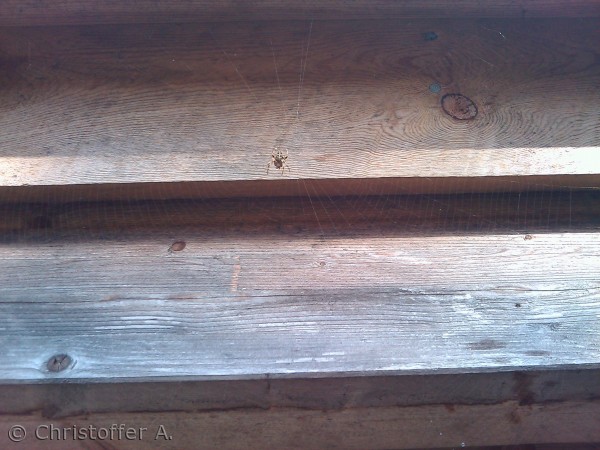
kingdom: Animalia
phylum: Arthropoda
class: Arachnida
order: Araneae
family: Araneidae
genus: Araneus
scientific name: Araneus diadematus
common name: Korsedderkop
